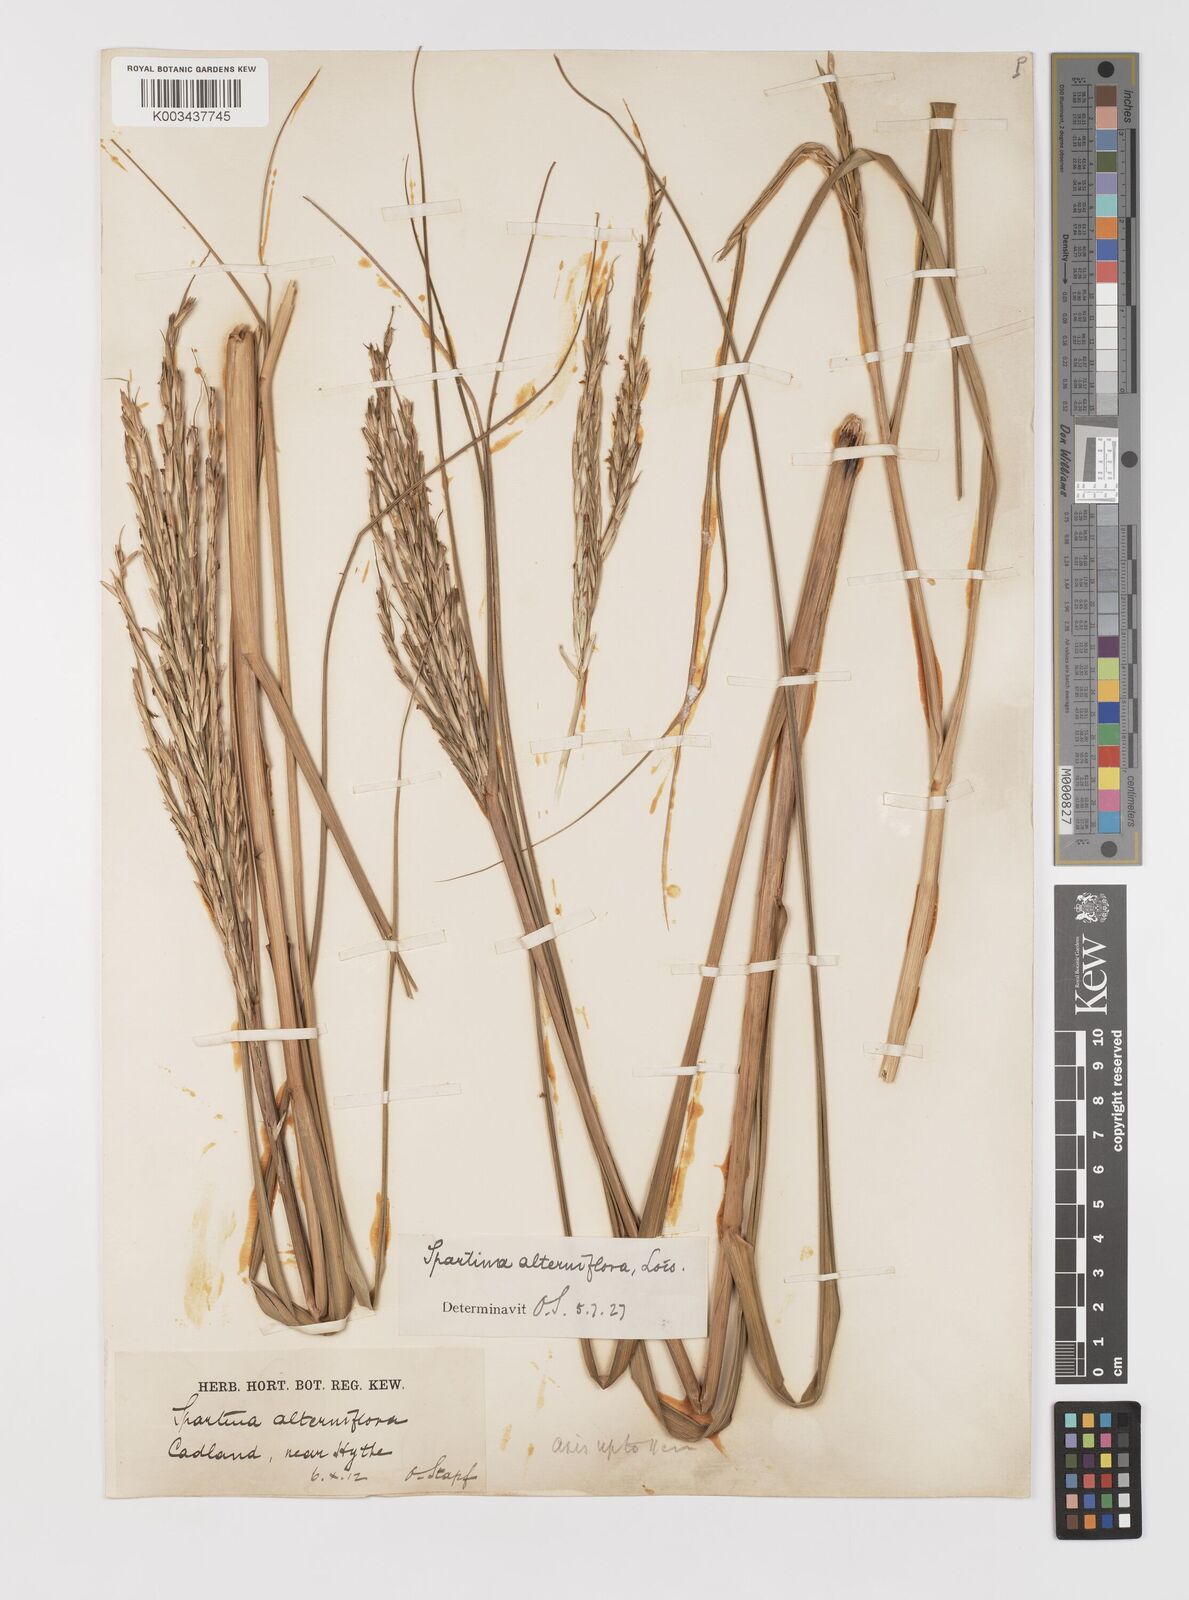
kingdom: Plantae
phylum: Tracheophyta
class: Liliopsida
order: Poales
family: Poaceae
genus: Sporobolus
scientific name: Sporobolus alterniflorus
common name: Atlantic cordgrass
